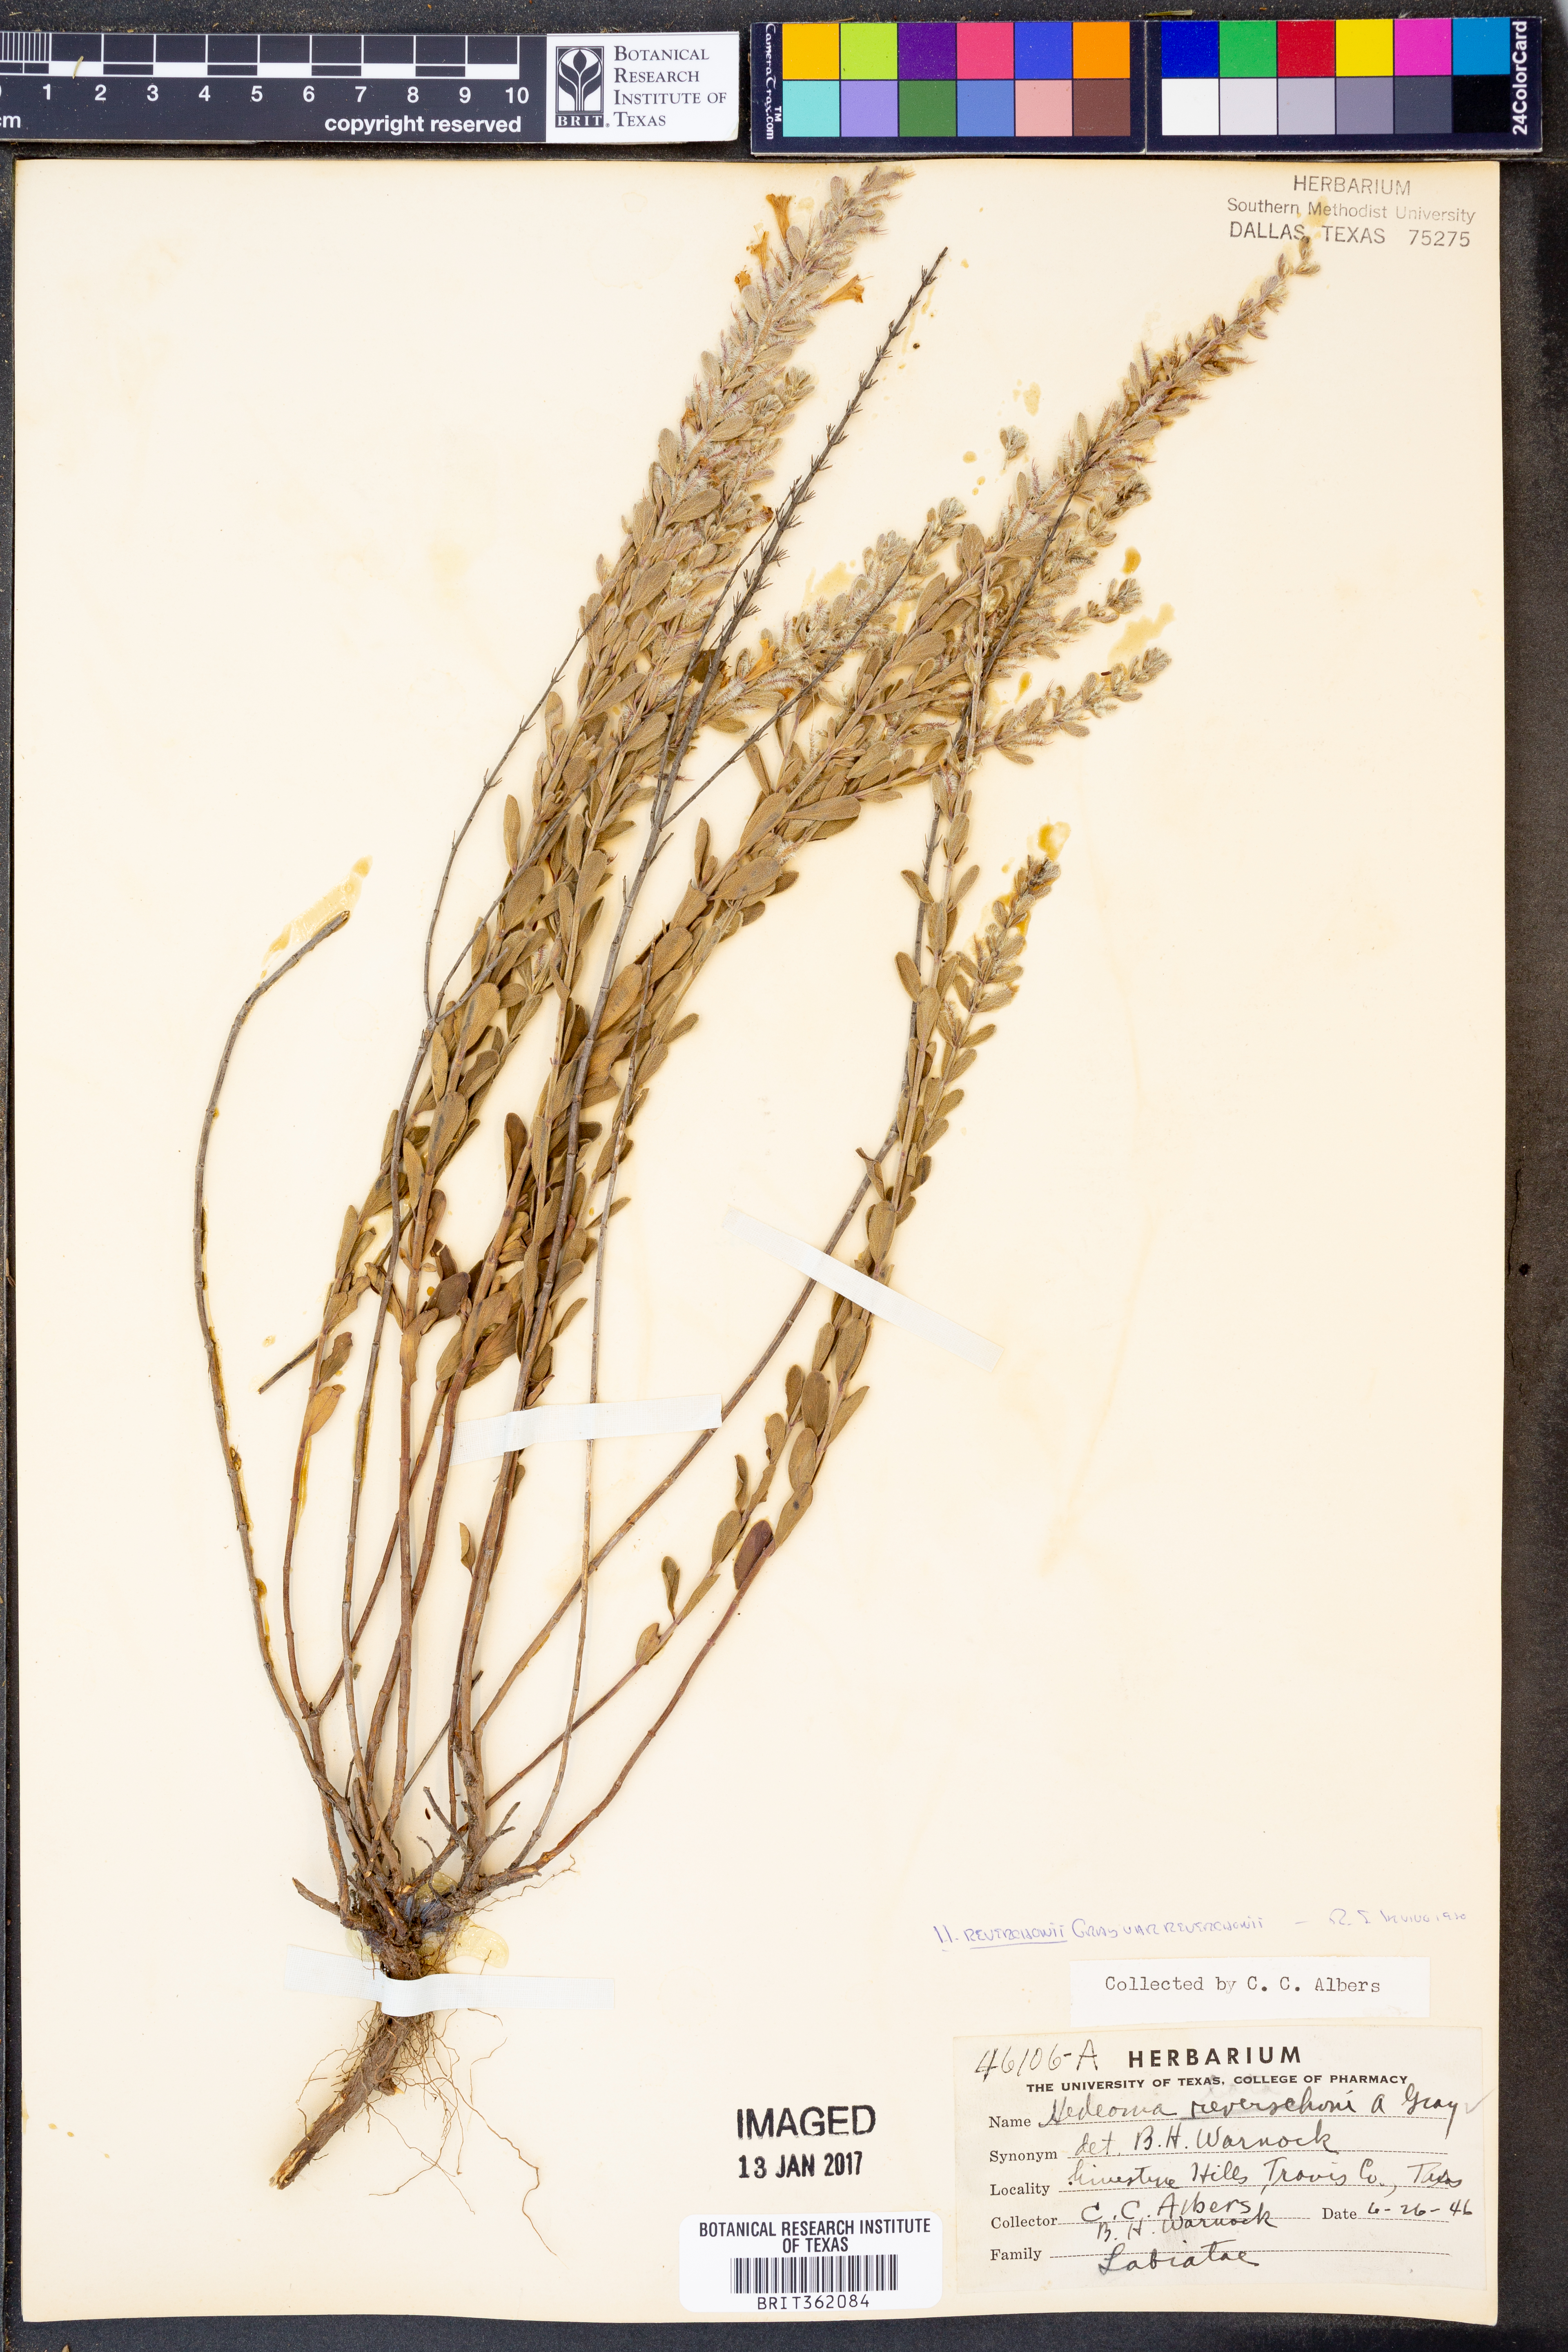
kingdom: Plantae
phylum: Tracheophyta
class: Magnoliopsida
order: Lamiales
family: Lamiaceae
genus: Hedeoma
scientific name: Hedeoma reverchonii
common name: Reverchon's false penny-royal
